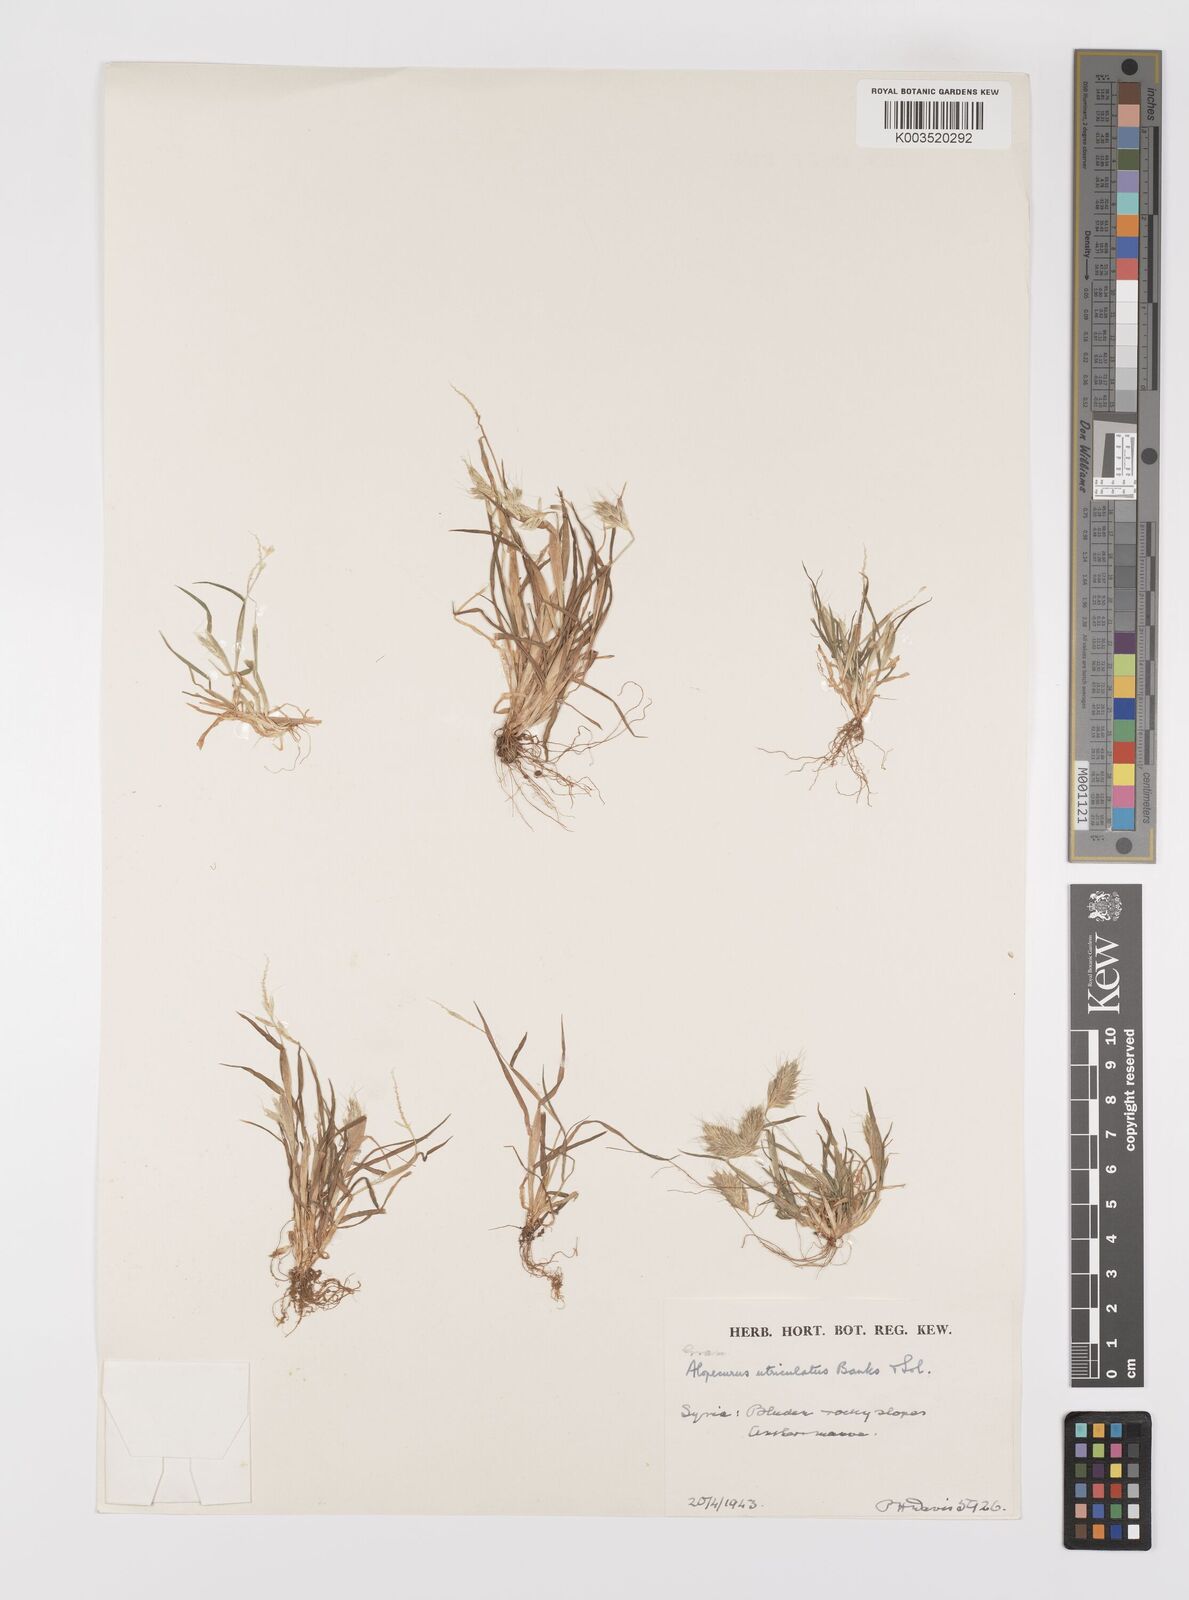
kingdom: Plantae
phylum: Tracheophyta
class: Liliopsida
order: Poales
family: Poaceae
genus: Alopecurus
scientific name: Alopecurus utriculatus
